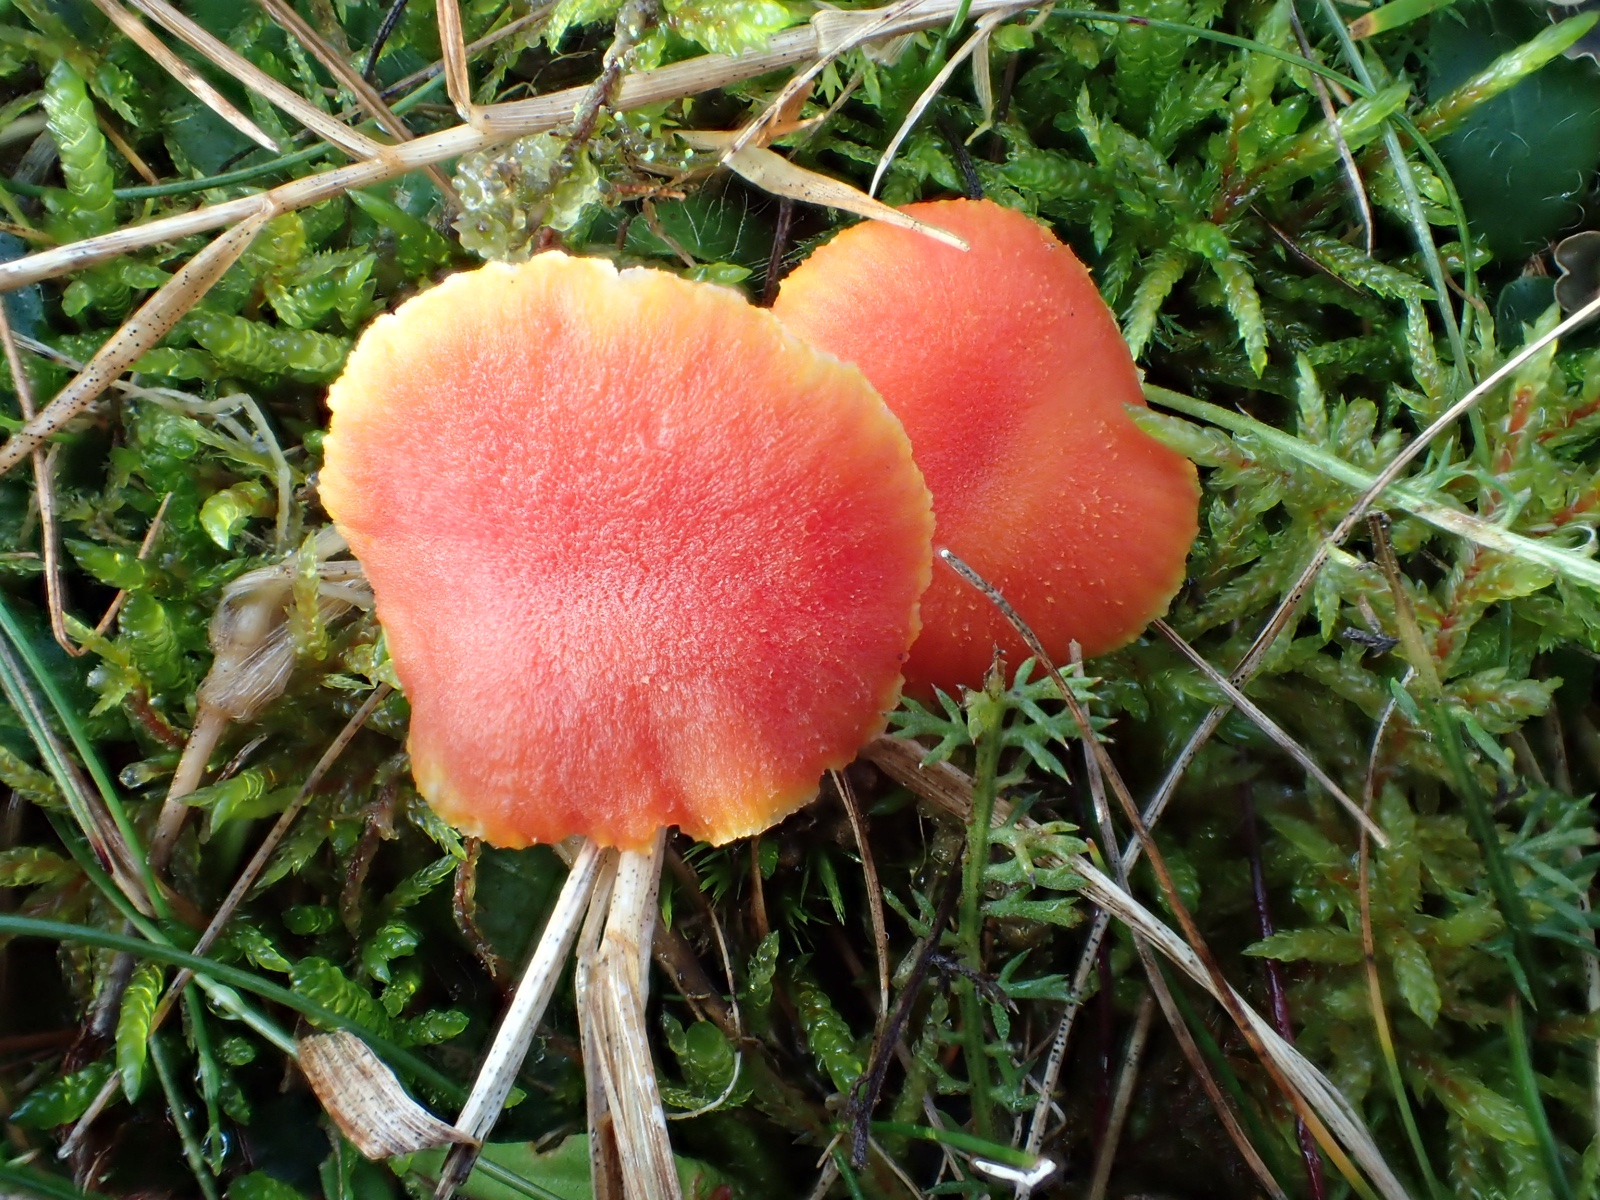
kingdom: Fungi
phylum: Basidiomycota
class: Agaricomycetes
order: Agaricales
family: Hygrophoraceae
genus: Hygrocybe
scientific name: Hygrocybe miniata
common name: mønje-vokshat
